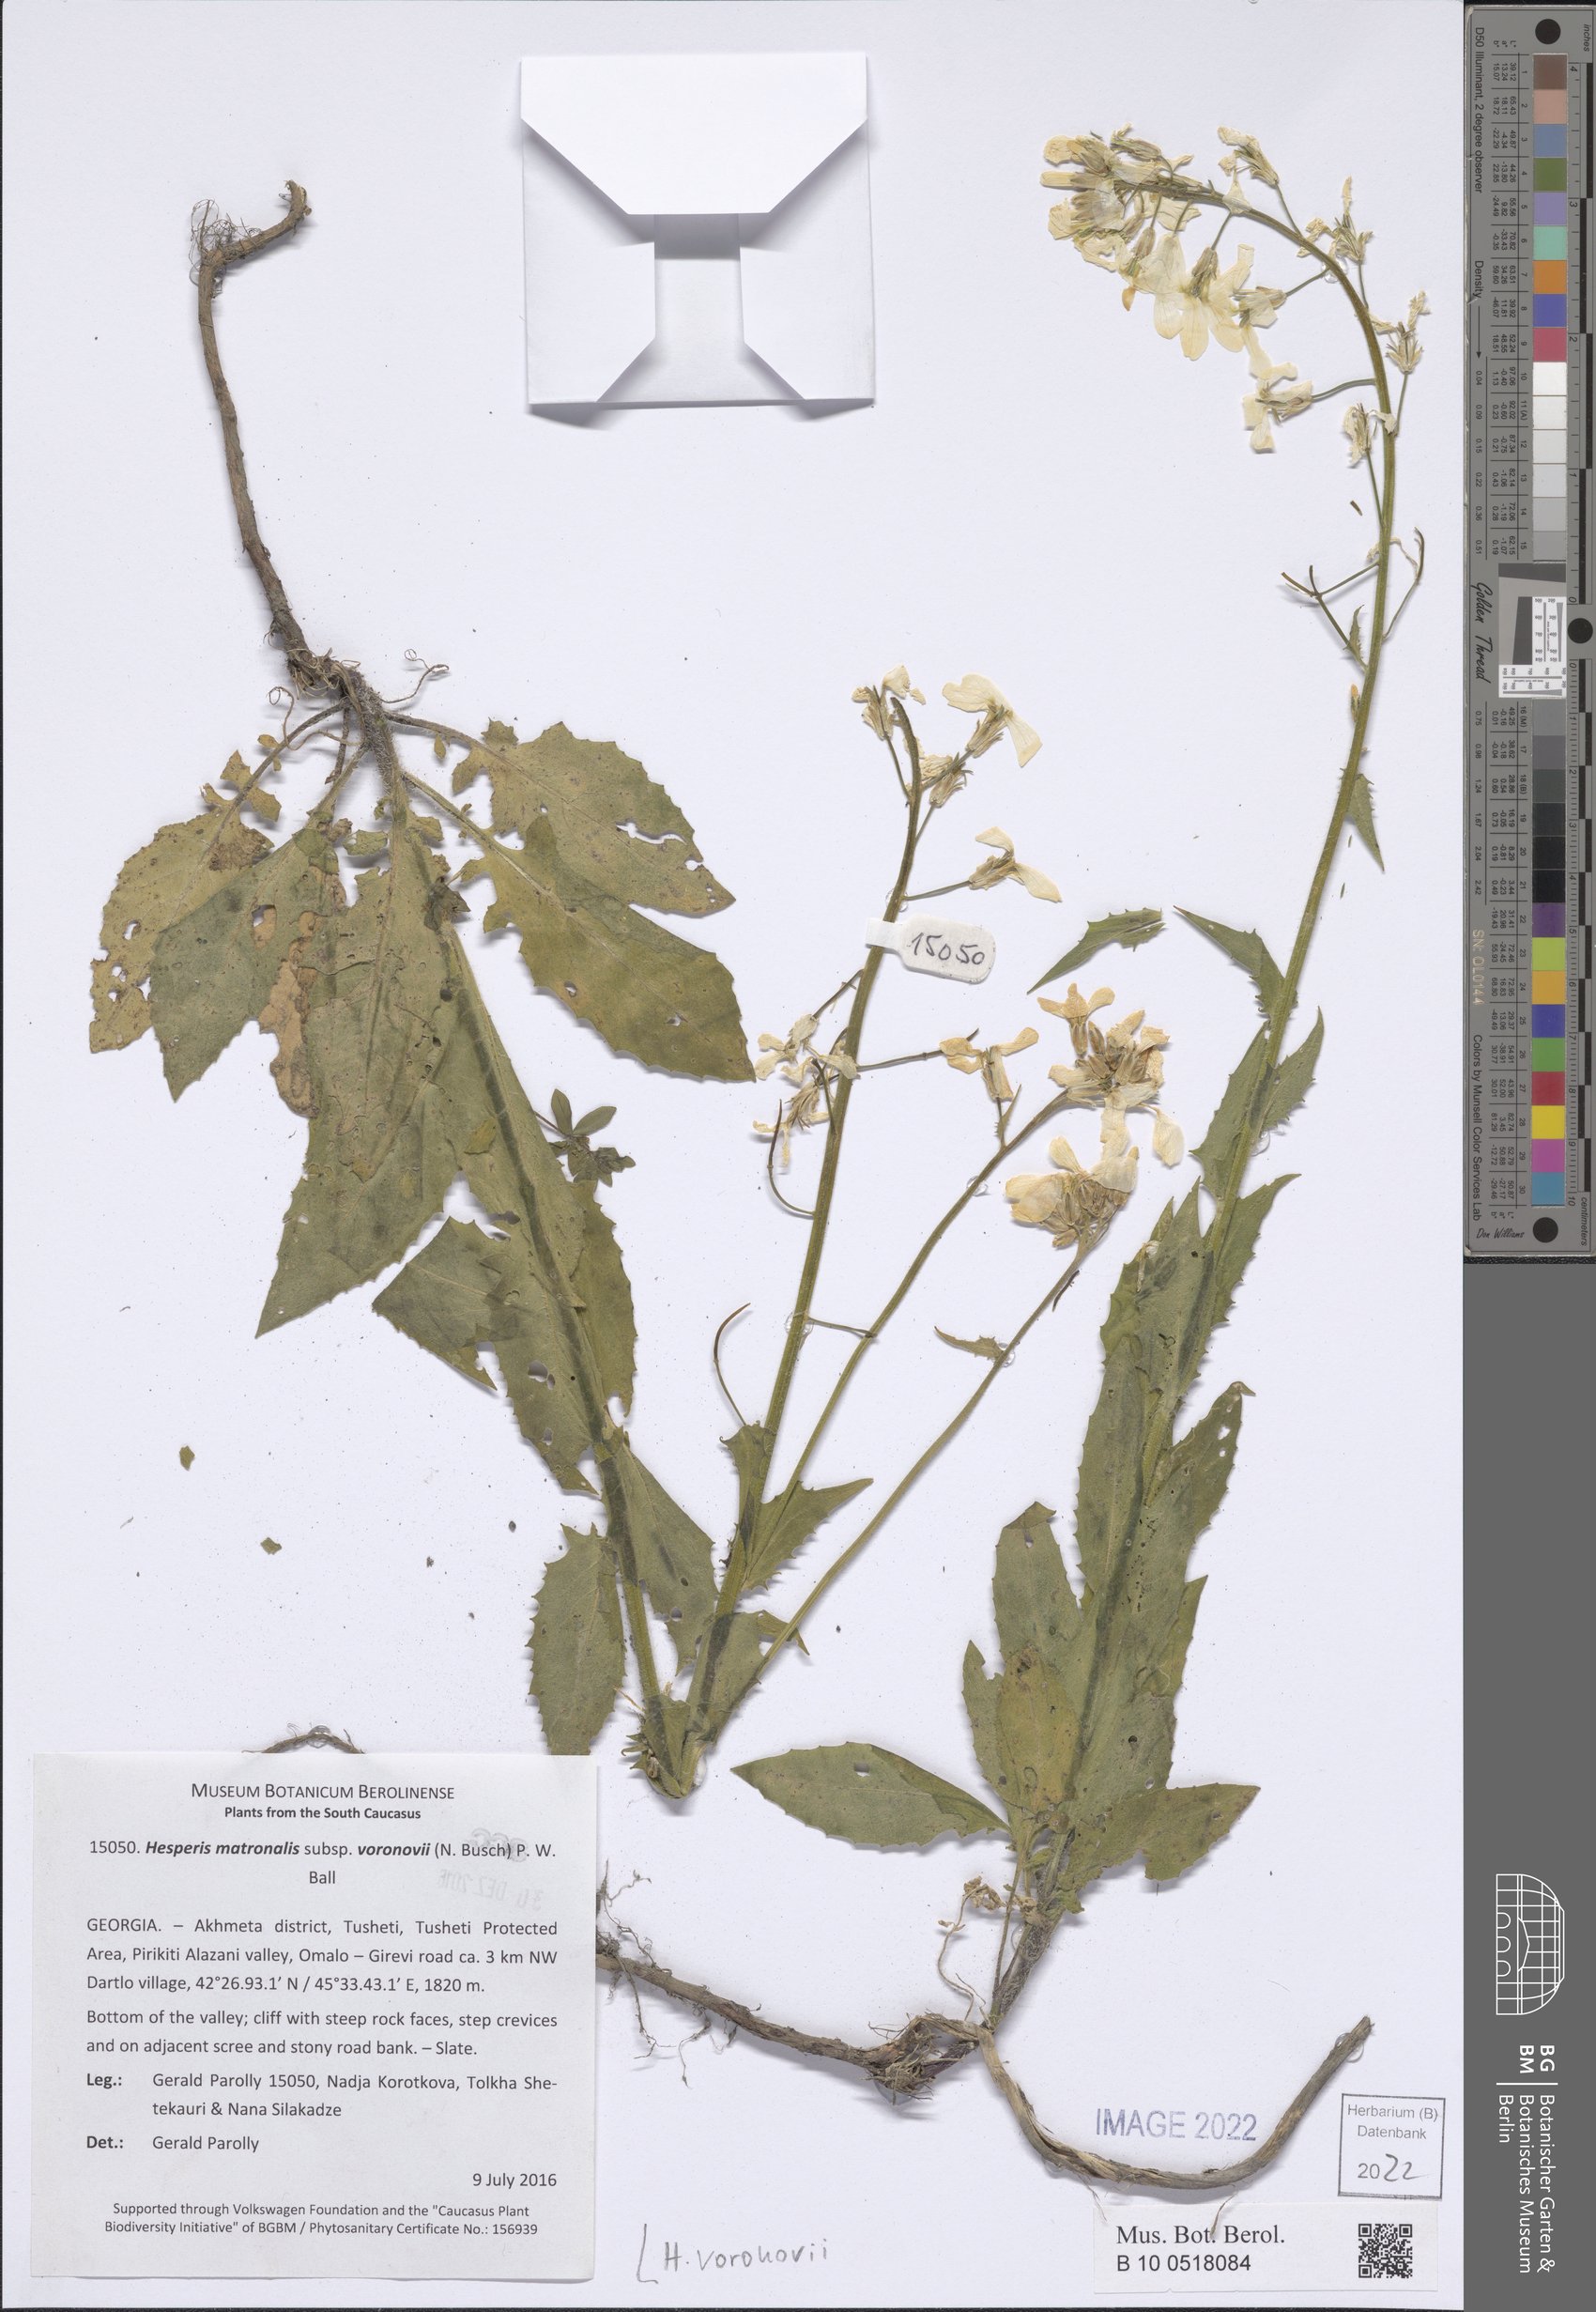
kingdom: Plantae
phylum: Tracheophyta
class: Magnoliopsida
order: Brassicales
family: Brassicaceae
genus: Hesperis
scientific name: Hesperis matronalis
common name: Dame's-violet
